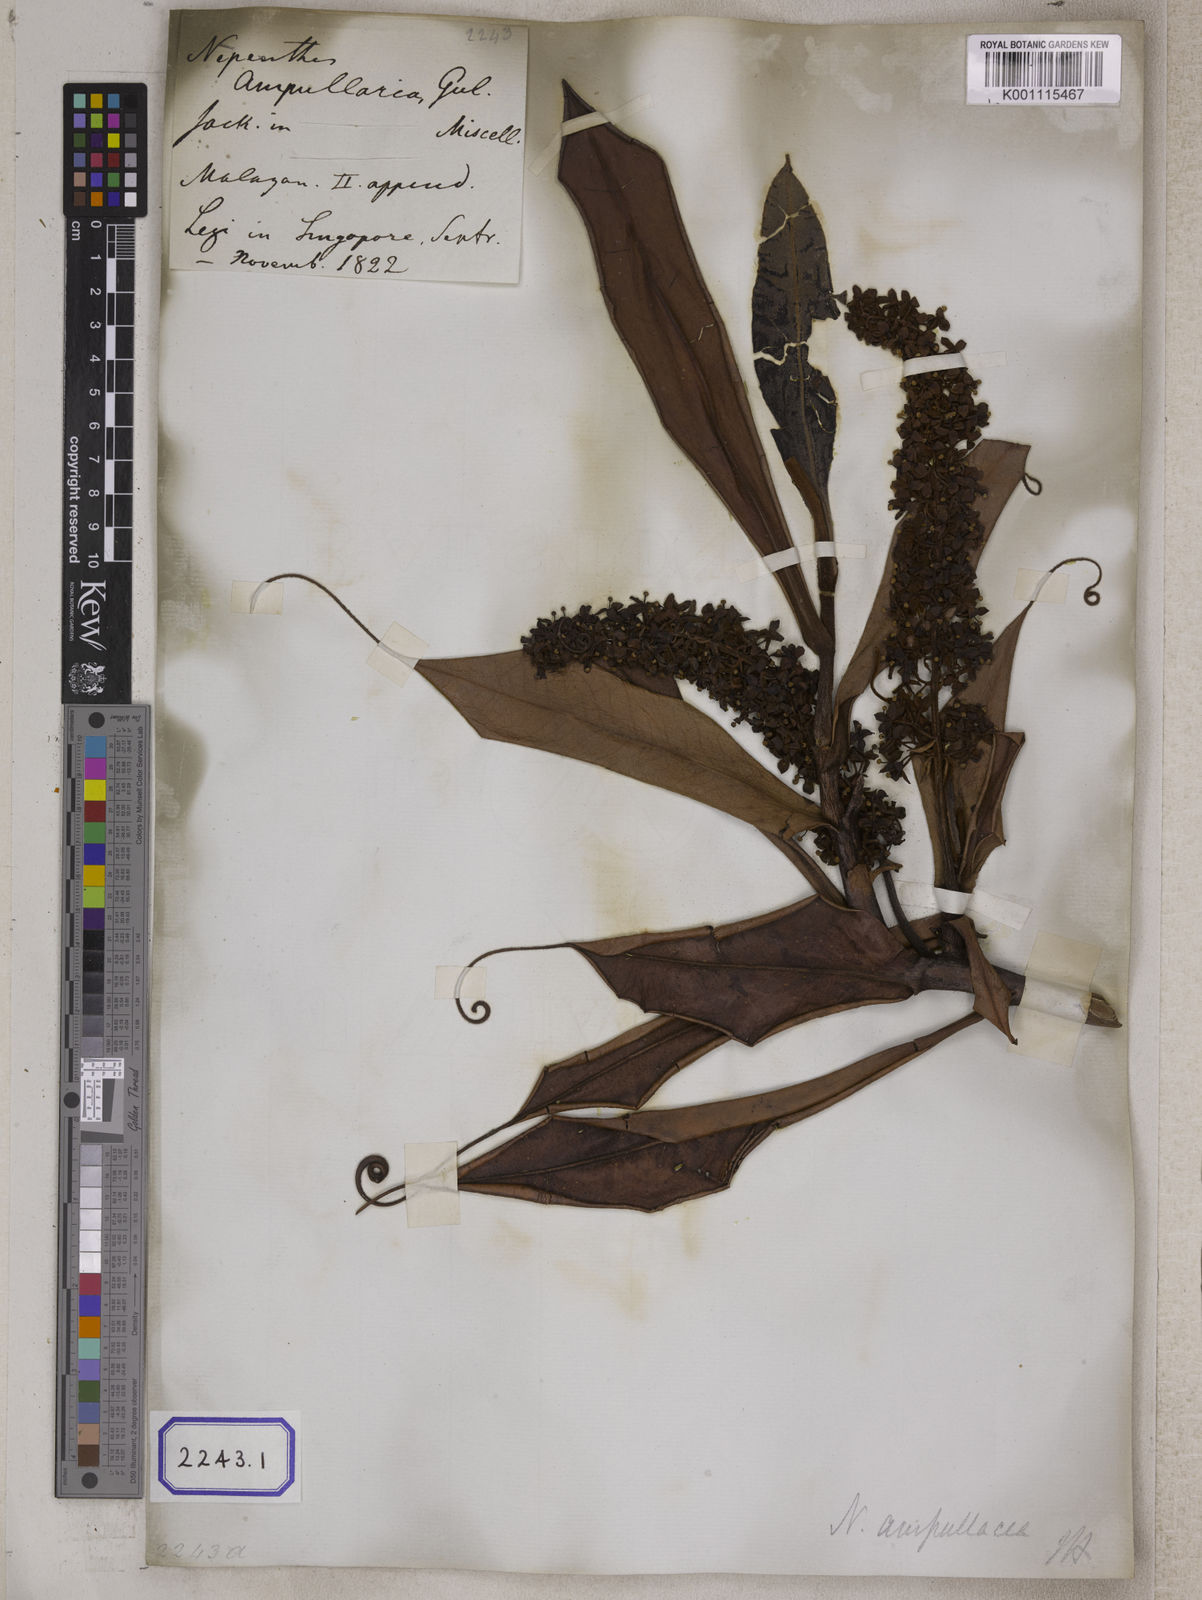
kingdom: Plantae
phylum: Tracheophyta
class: Magnoliopsida
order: Caryophyllales
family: Nepenthaceae
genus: Nepenthes
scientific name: Nepenthes ampullaria
